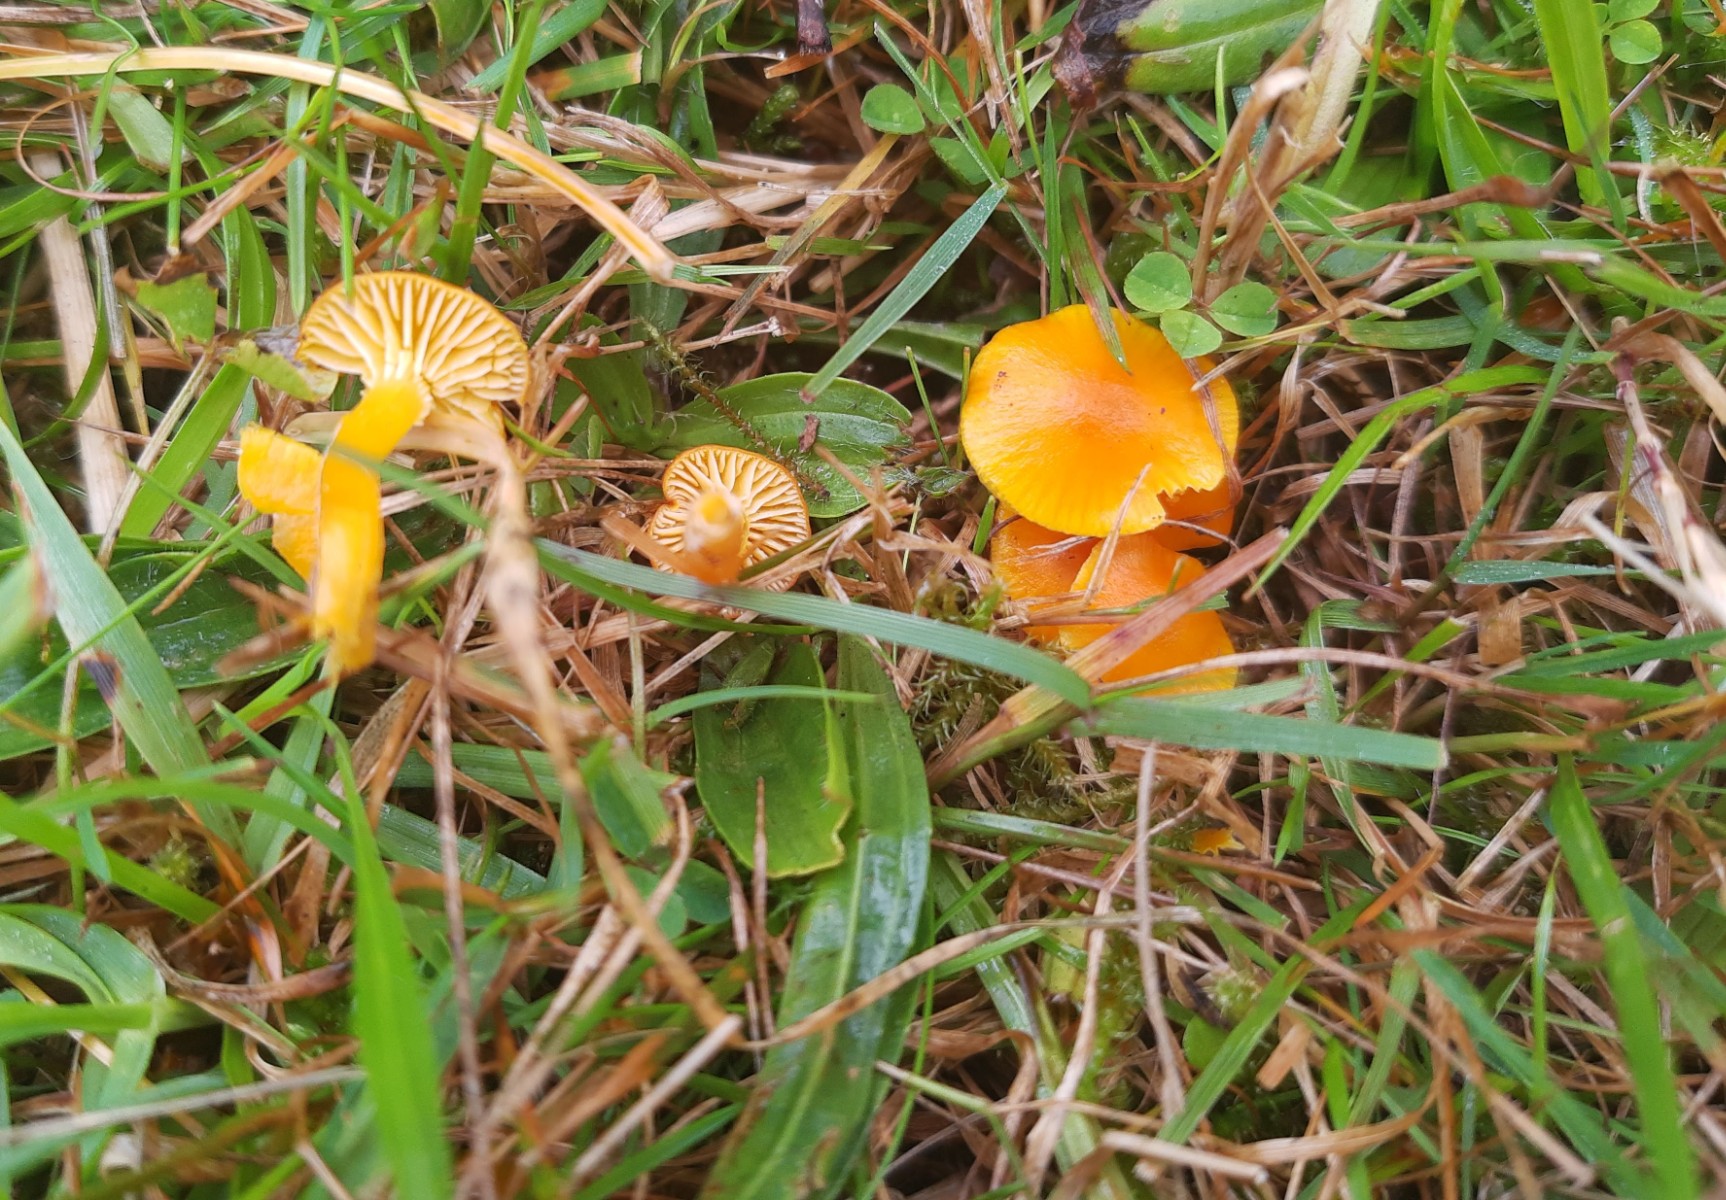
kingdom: Fungi
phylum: Basidiomycota
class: Agaricomycetes
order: Agaricales
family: Hygrophoraceae
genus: Hygrocybe
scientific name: Hygrocybe insipida
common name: liden vokshat
